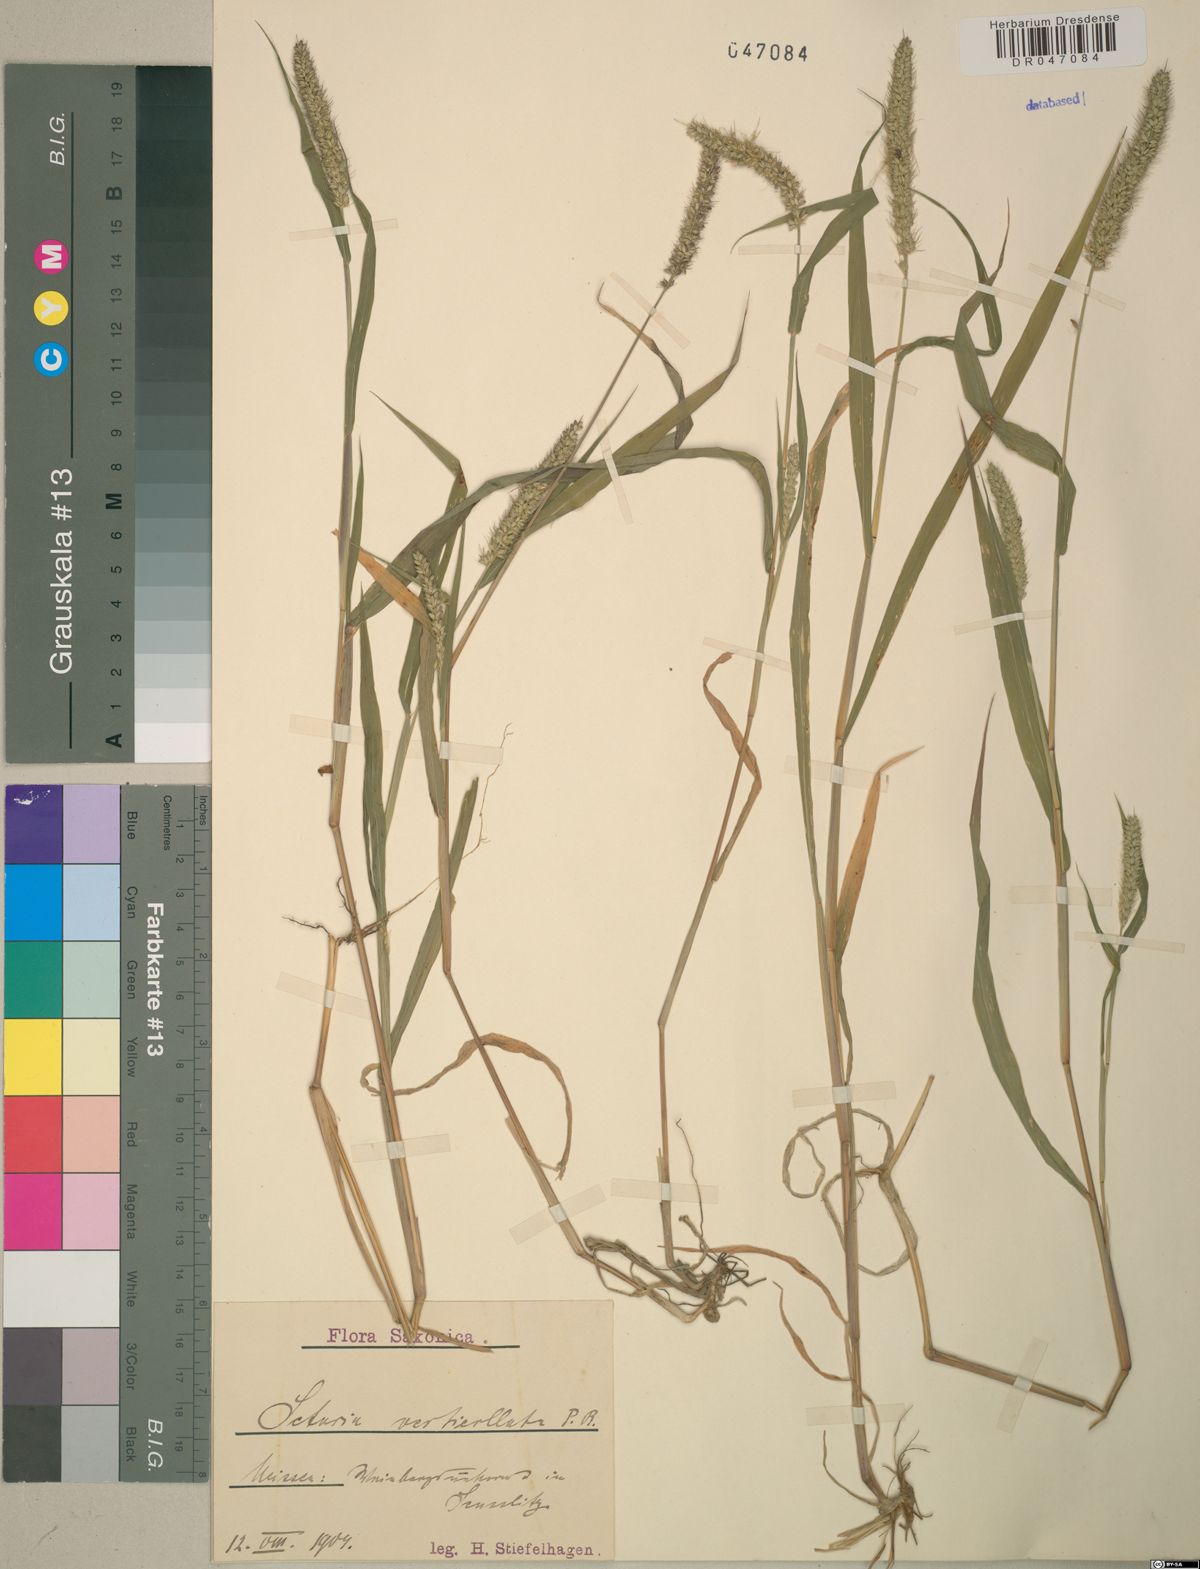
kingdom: Plantae
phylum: Tracheophyta
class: Liliopsida
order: Poales
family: Poaceae
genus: Setaria
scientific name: Setaria verticillata
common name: Hooked bristlegrass
